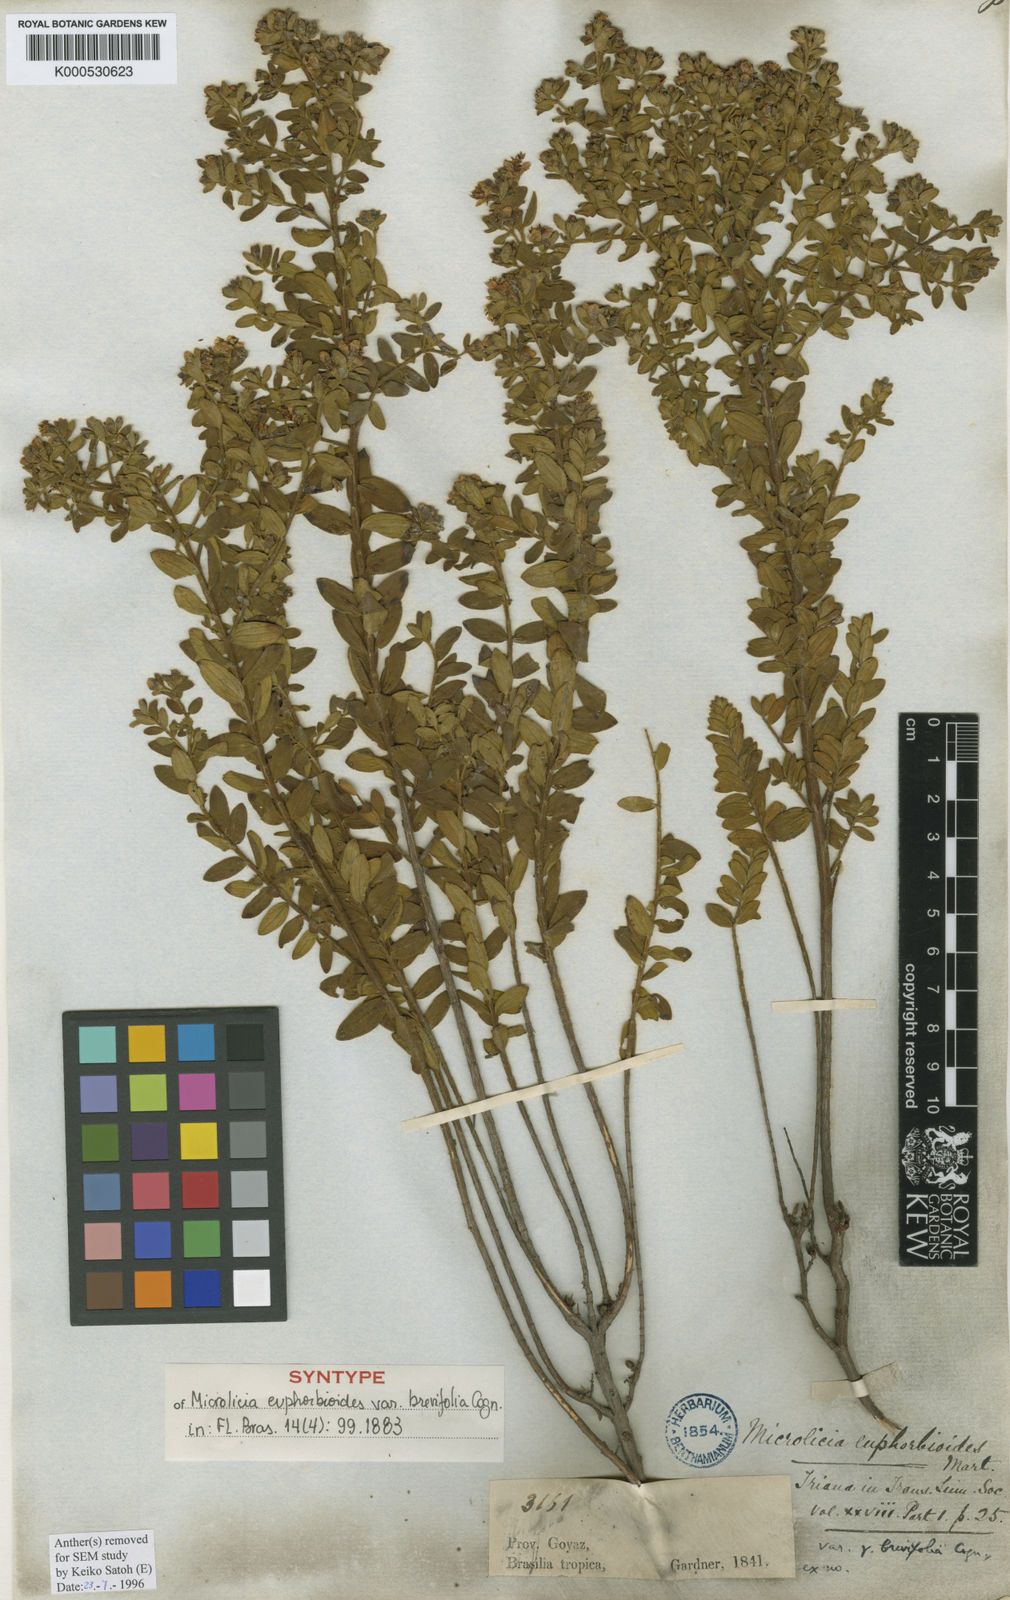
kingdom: Plantae
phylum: Tracheophyta
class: Magnoliopsida
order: Myrtales
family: Melastomataceae
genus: Microlicia
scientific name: Microlicia euphorbioides
